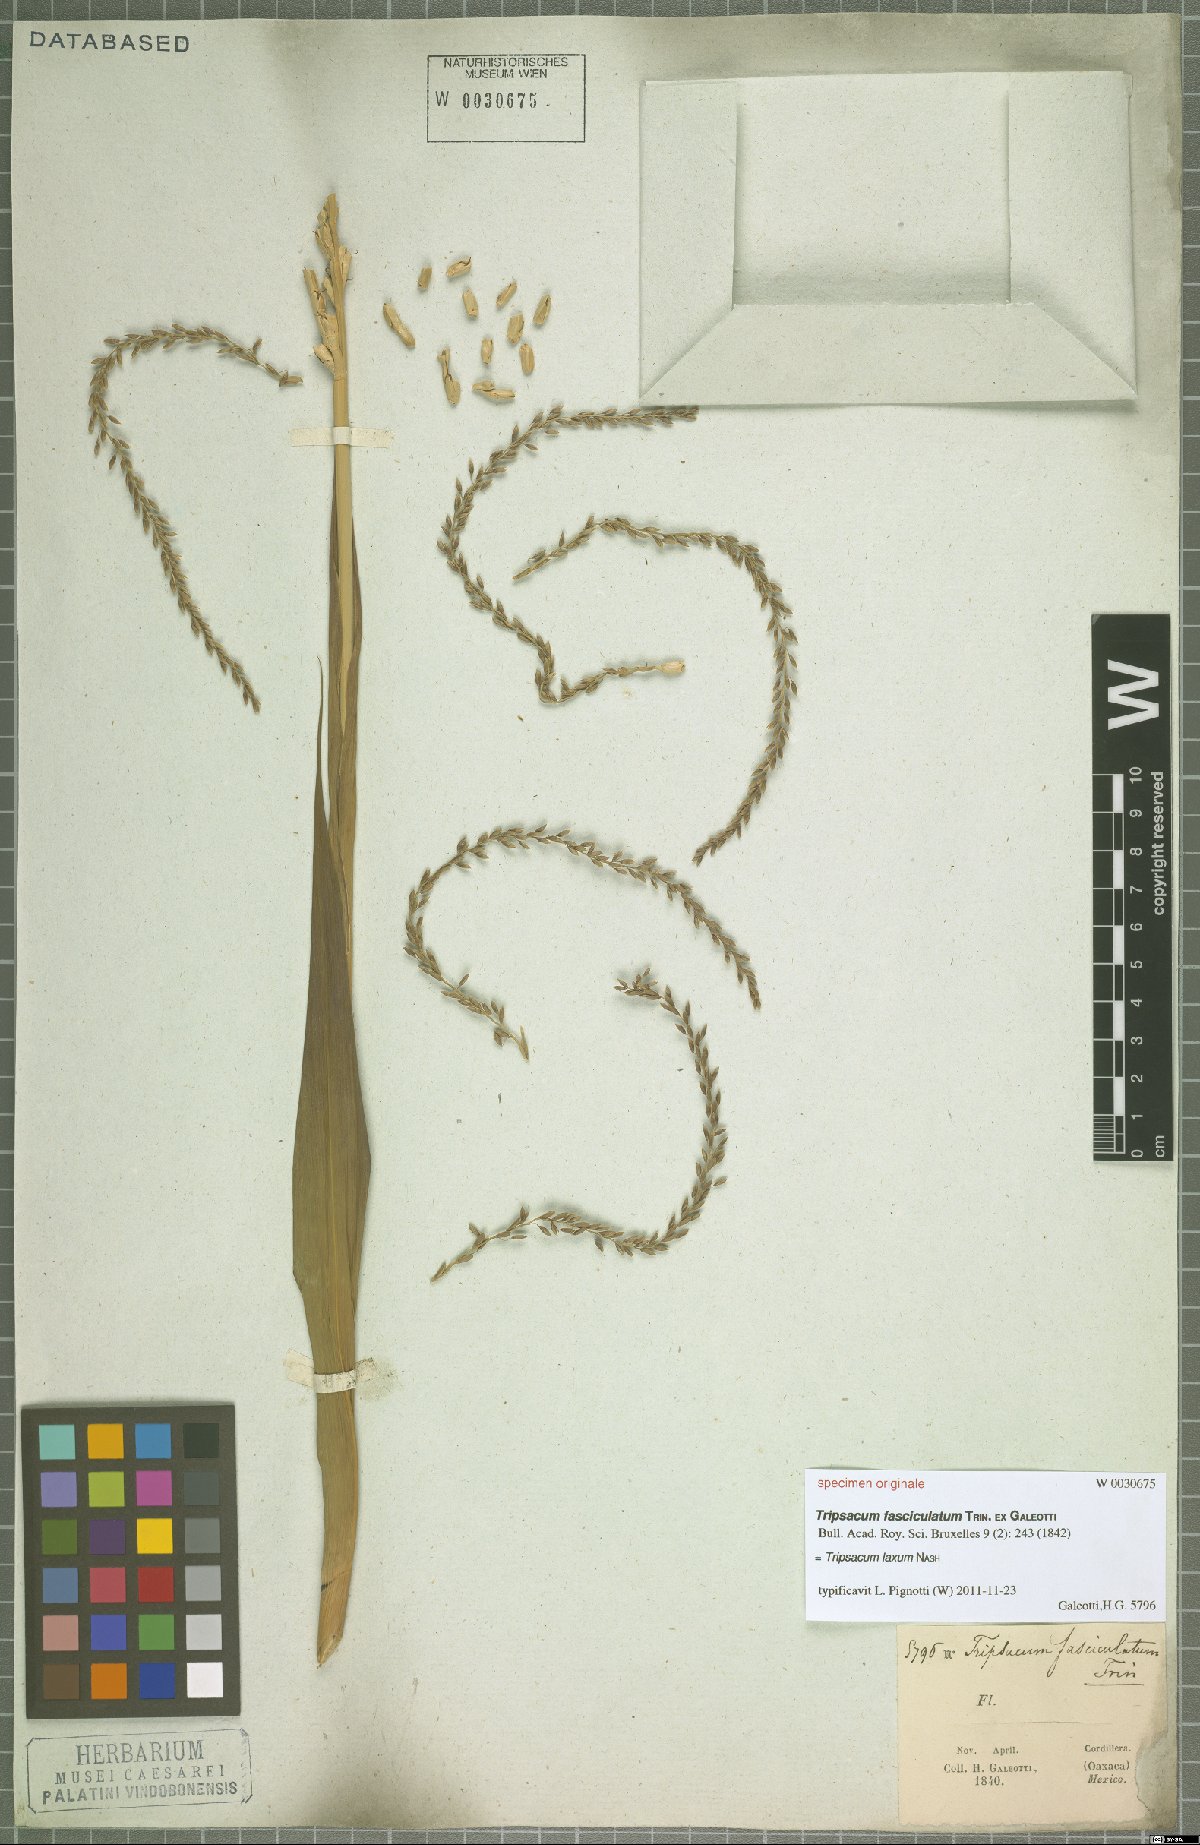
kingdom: Plantae
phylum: Tracheophyta
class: Liliopsida
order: Poales
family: Poaceae
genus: Tripsacum
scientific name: Tripsacum laxum
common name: Grama-guatemala
